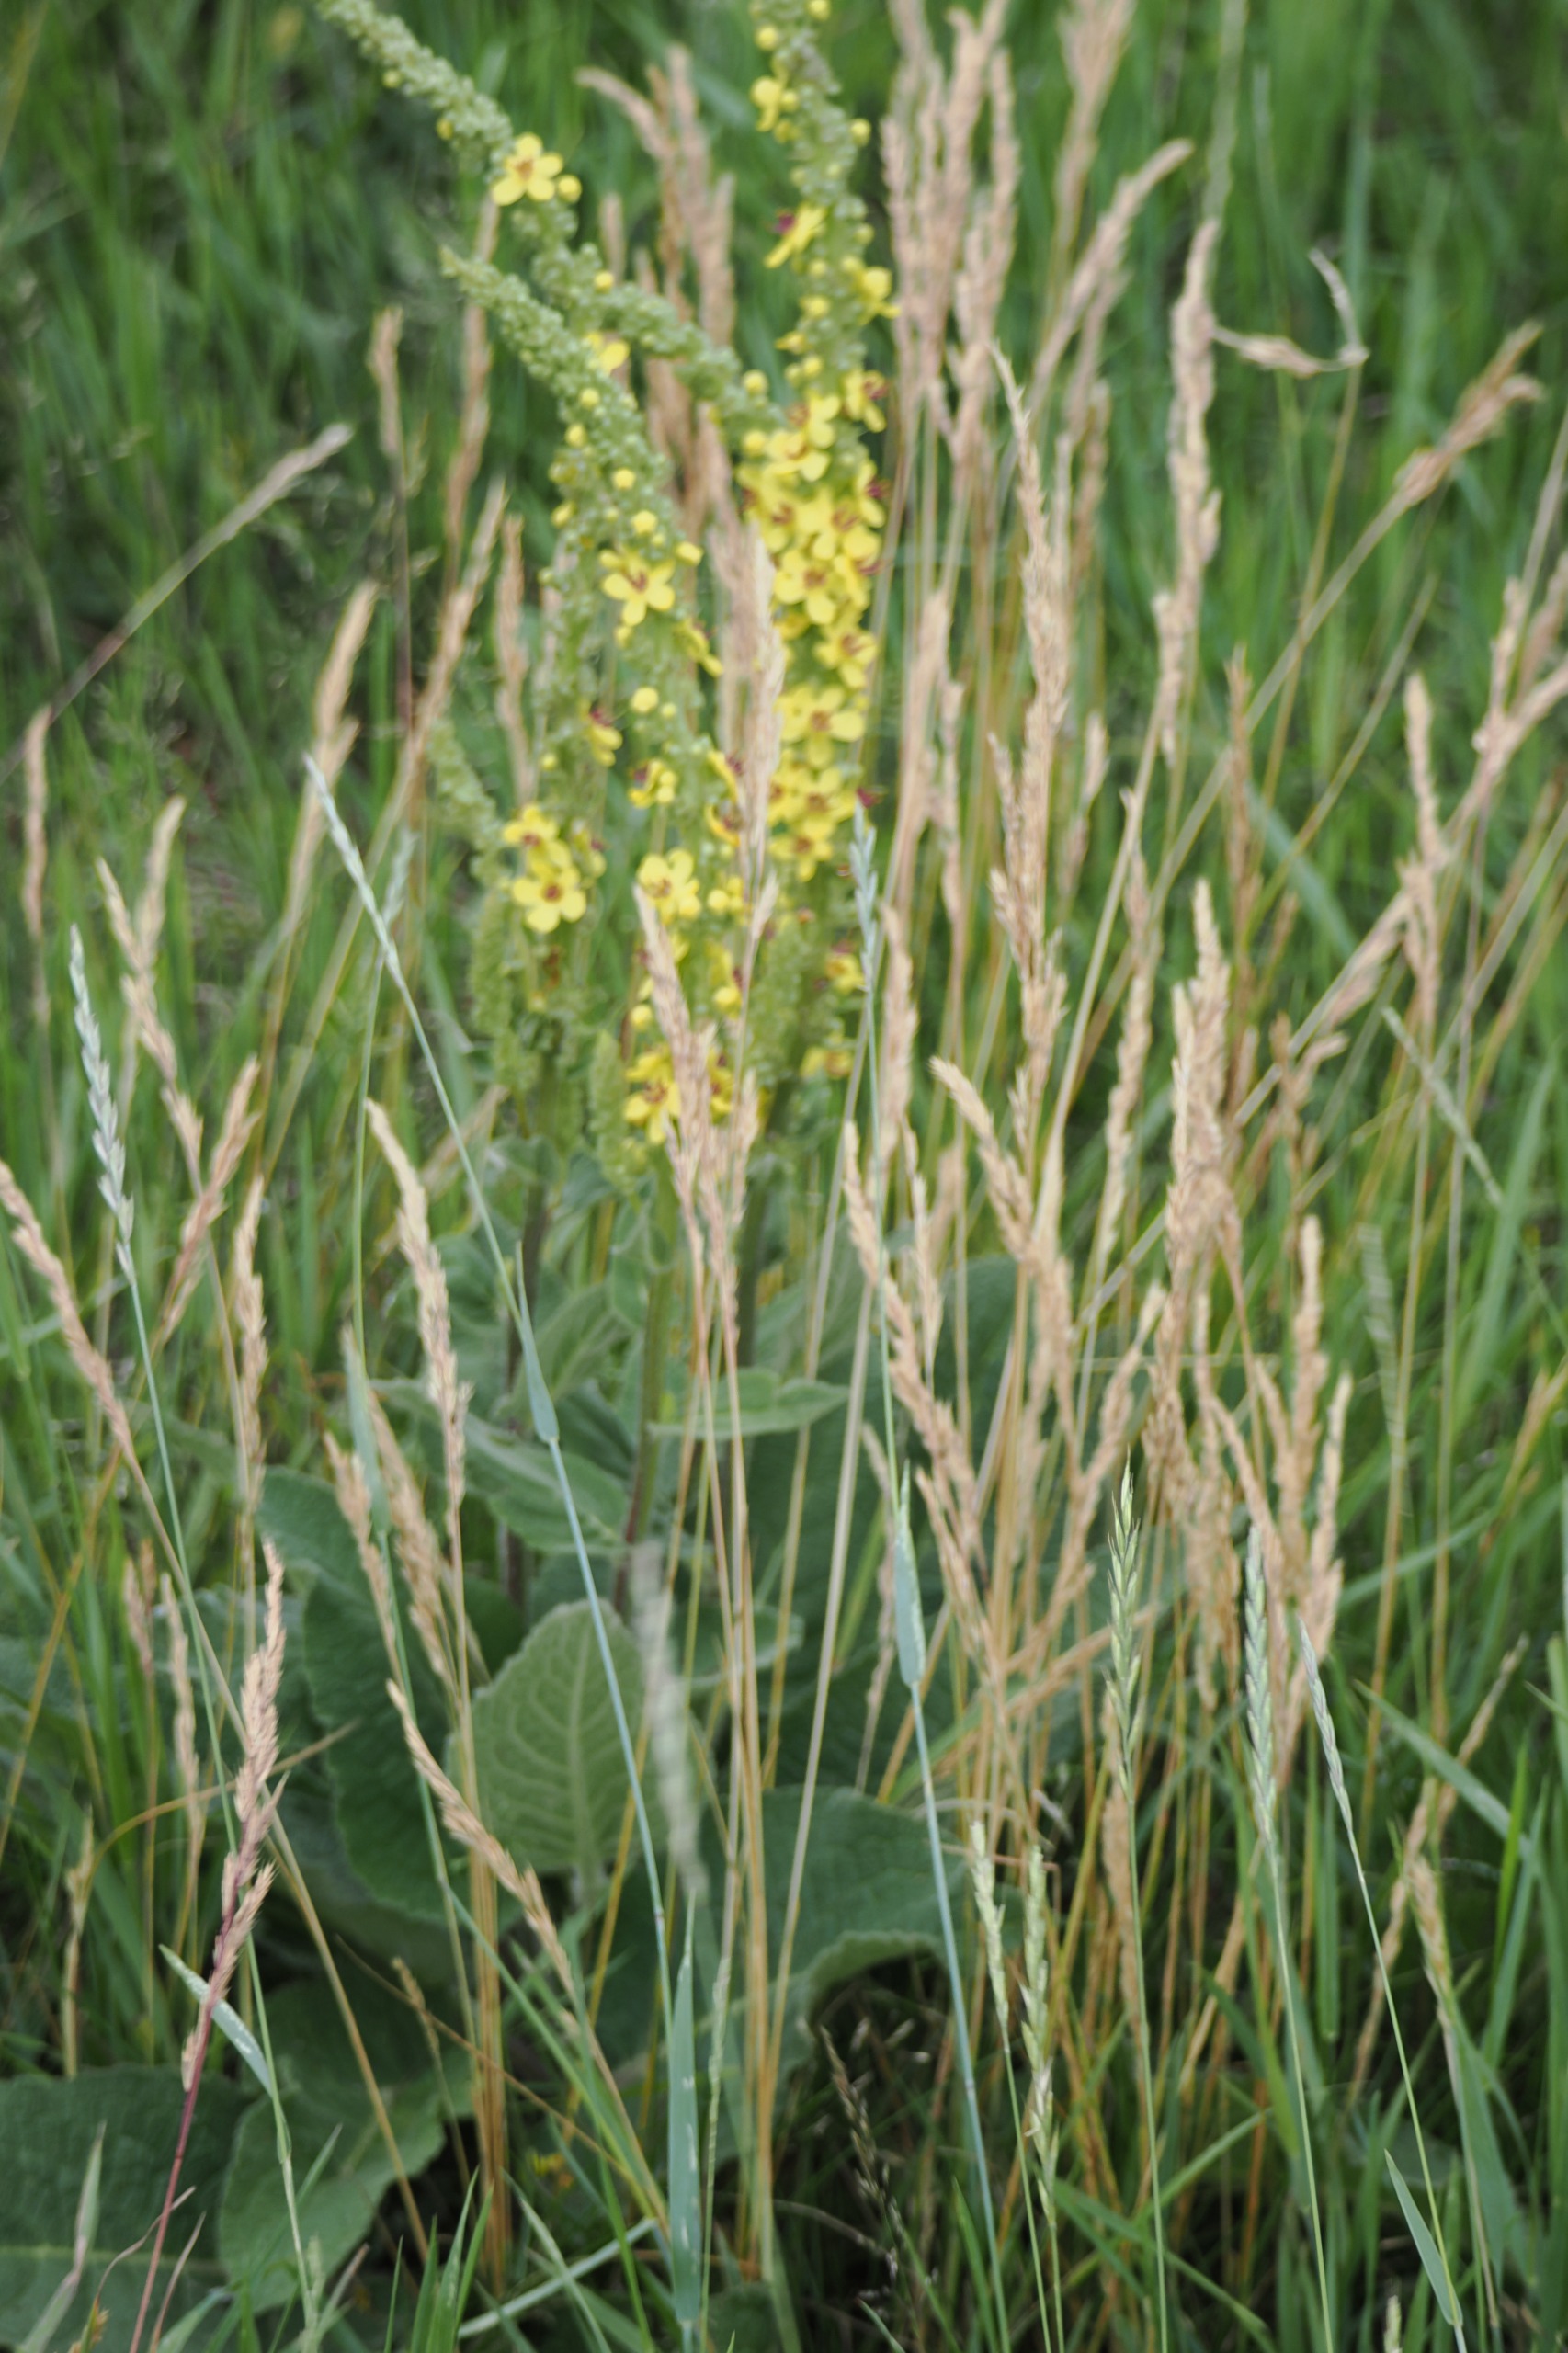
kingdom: Plantae
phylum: Tracheophyta
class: Magnoliopsida
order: Lamiales
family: Scrophulariaceae
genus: Verbascum
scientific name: Verbascum nigrum
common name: Mørk kongelys
